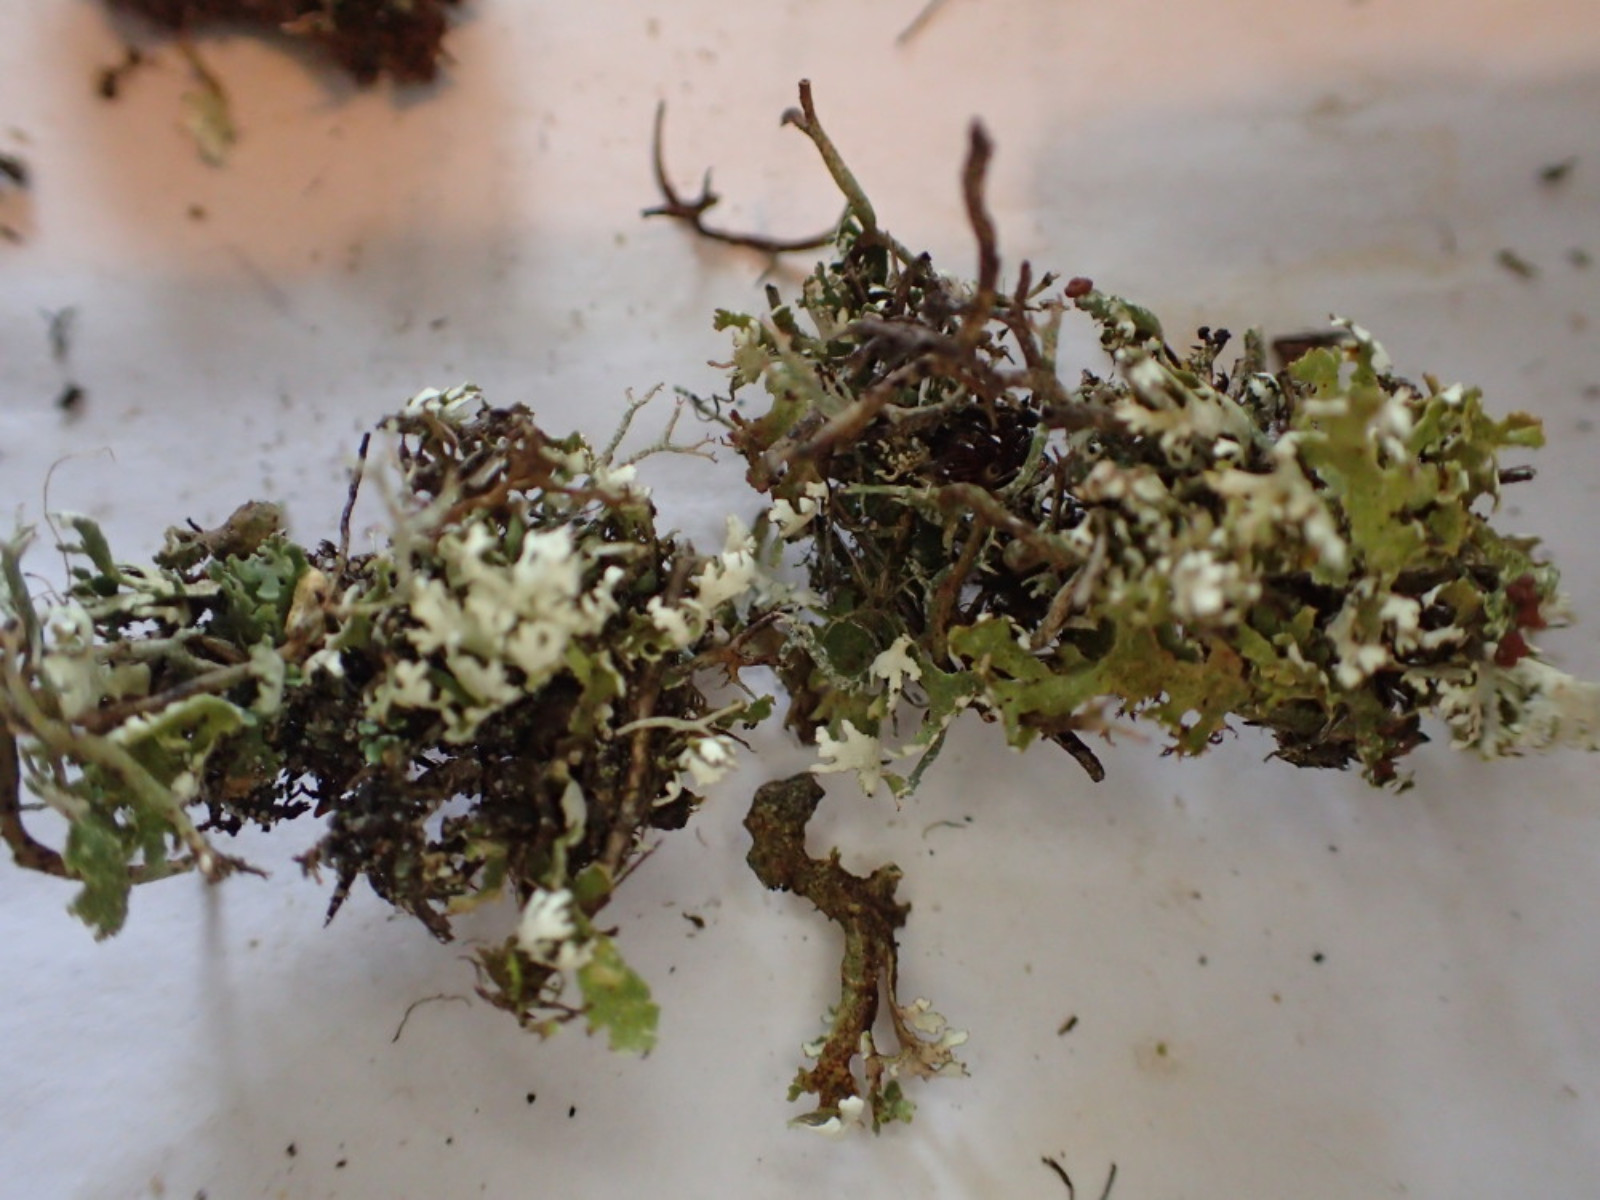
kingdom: Fungi
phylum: Ascomycota
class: Lecanoromycetes
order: Lecanorales
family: Cladoniaceae
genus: Cladonia
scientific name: Cladonia foliacea
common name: fliget bægerlav
